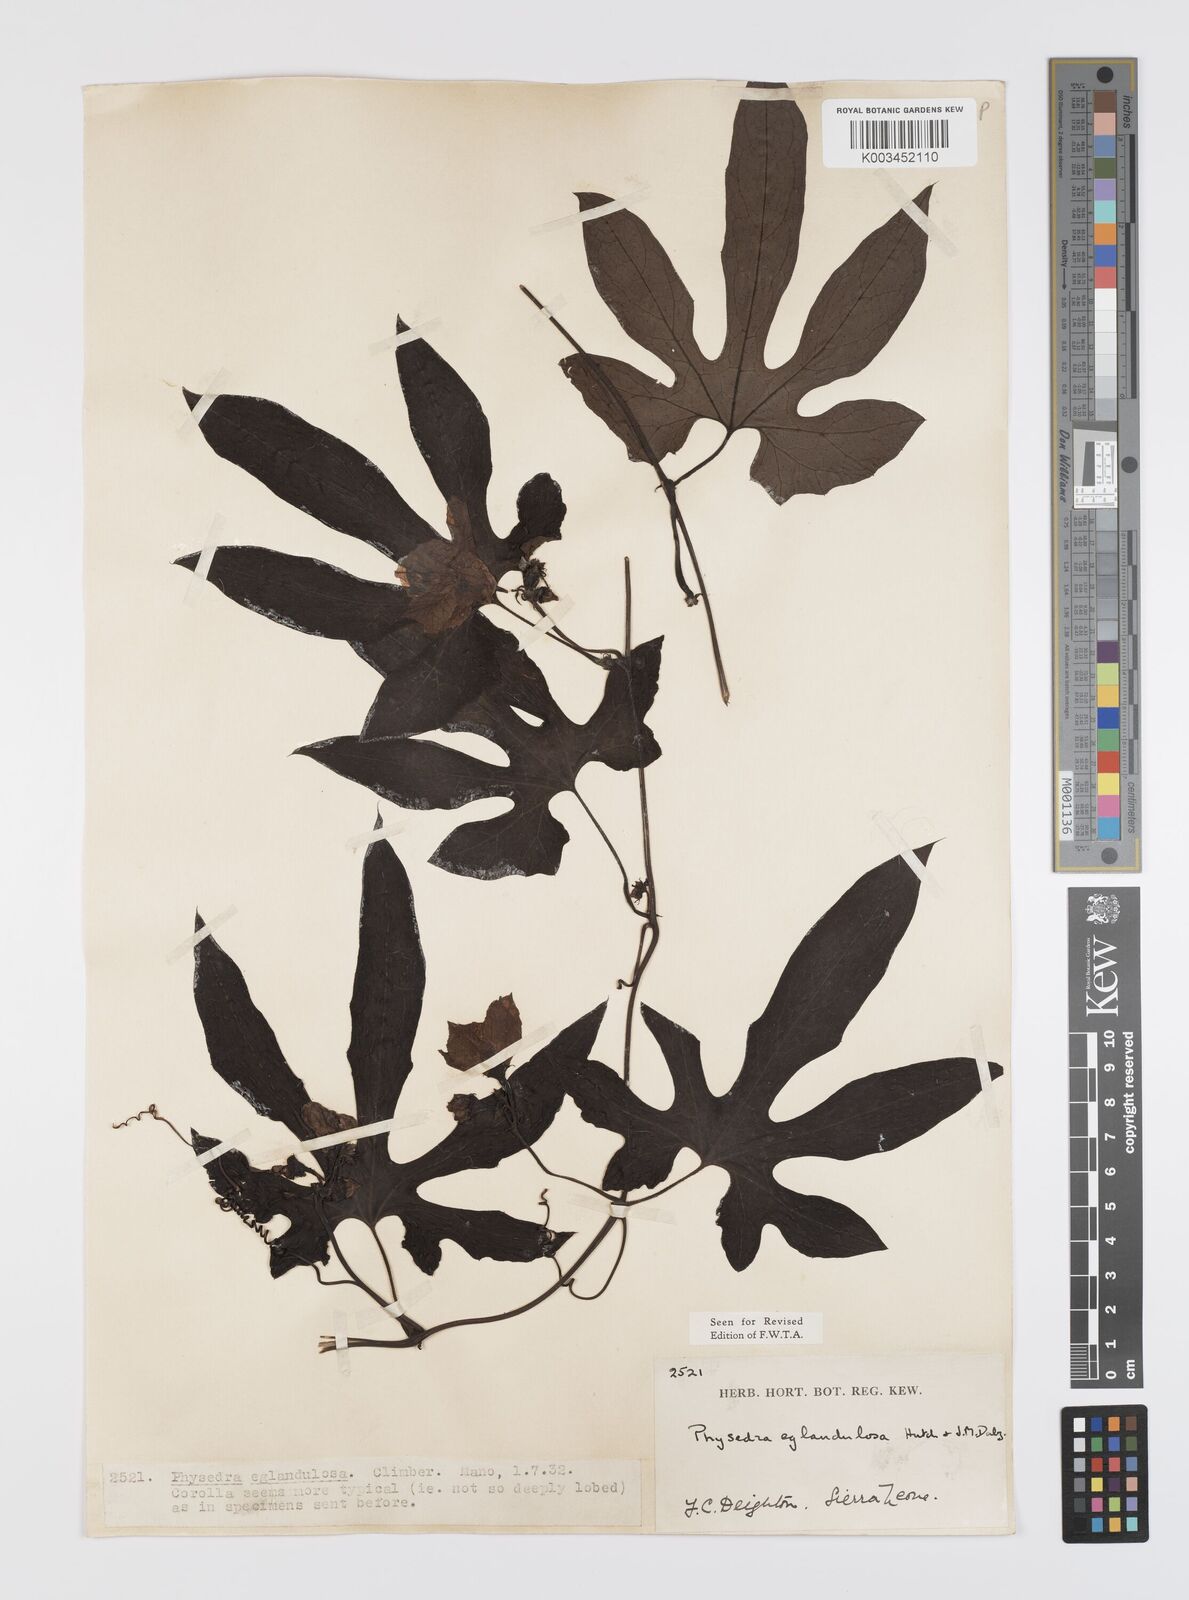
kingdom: Plantae
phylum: Tracheophyta
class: Magnoliopsida
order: Cucurbitales
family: Cucurbitaceae
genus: Ruthalicia
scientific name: Ruthalicia eglandulosa
